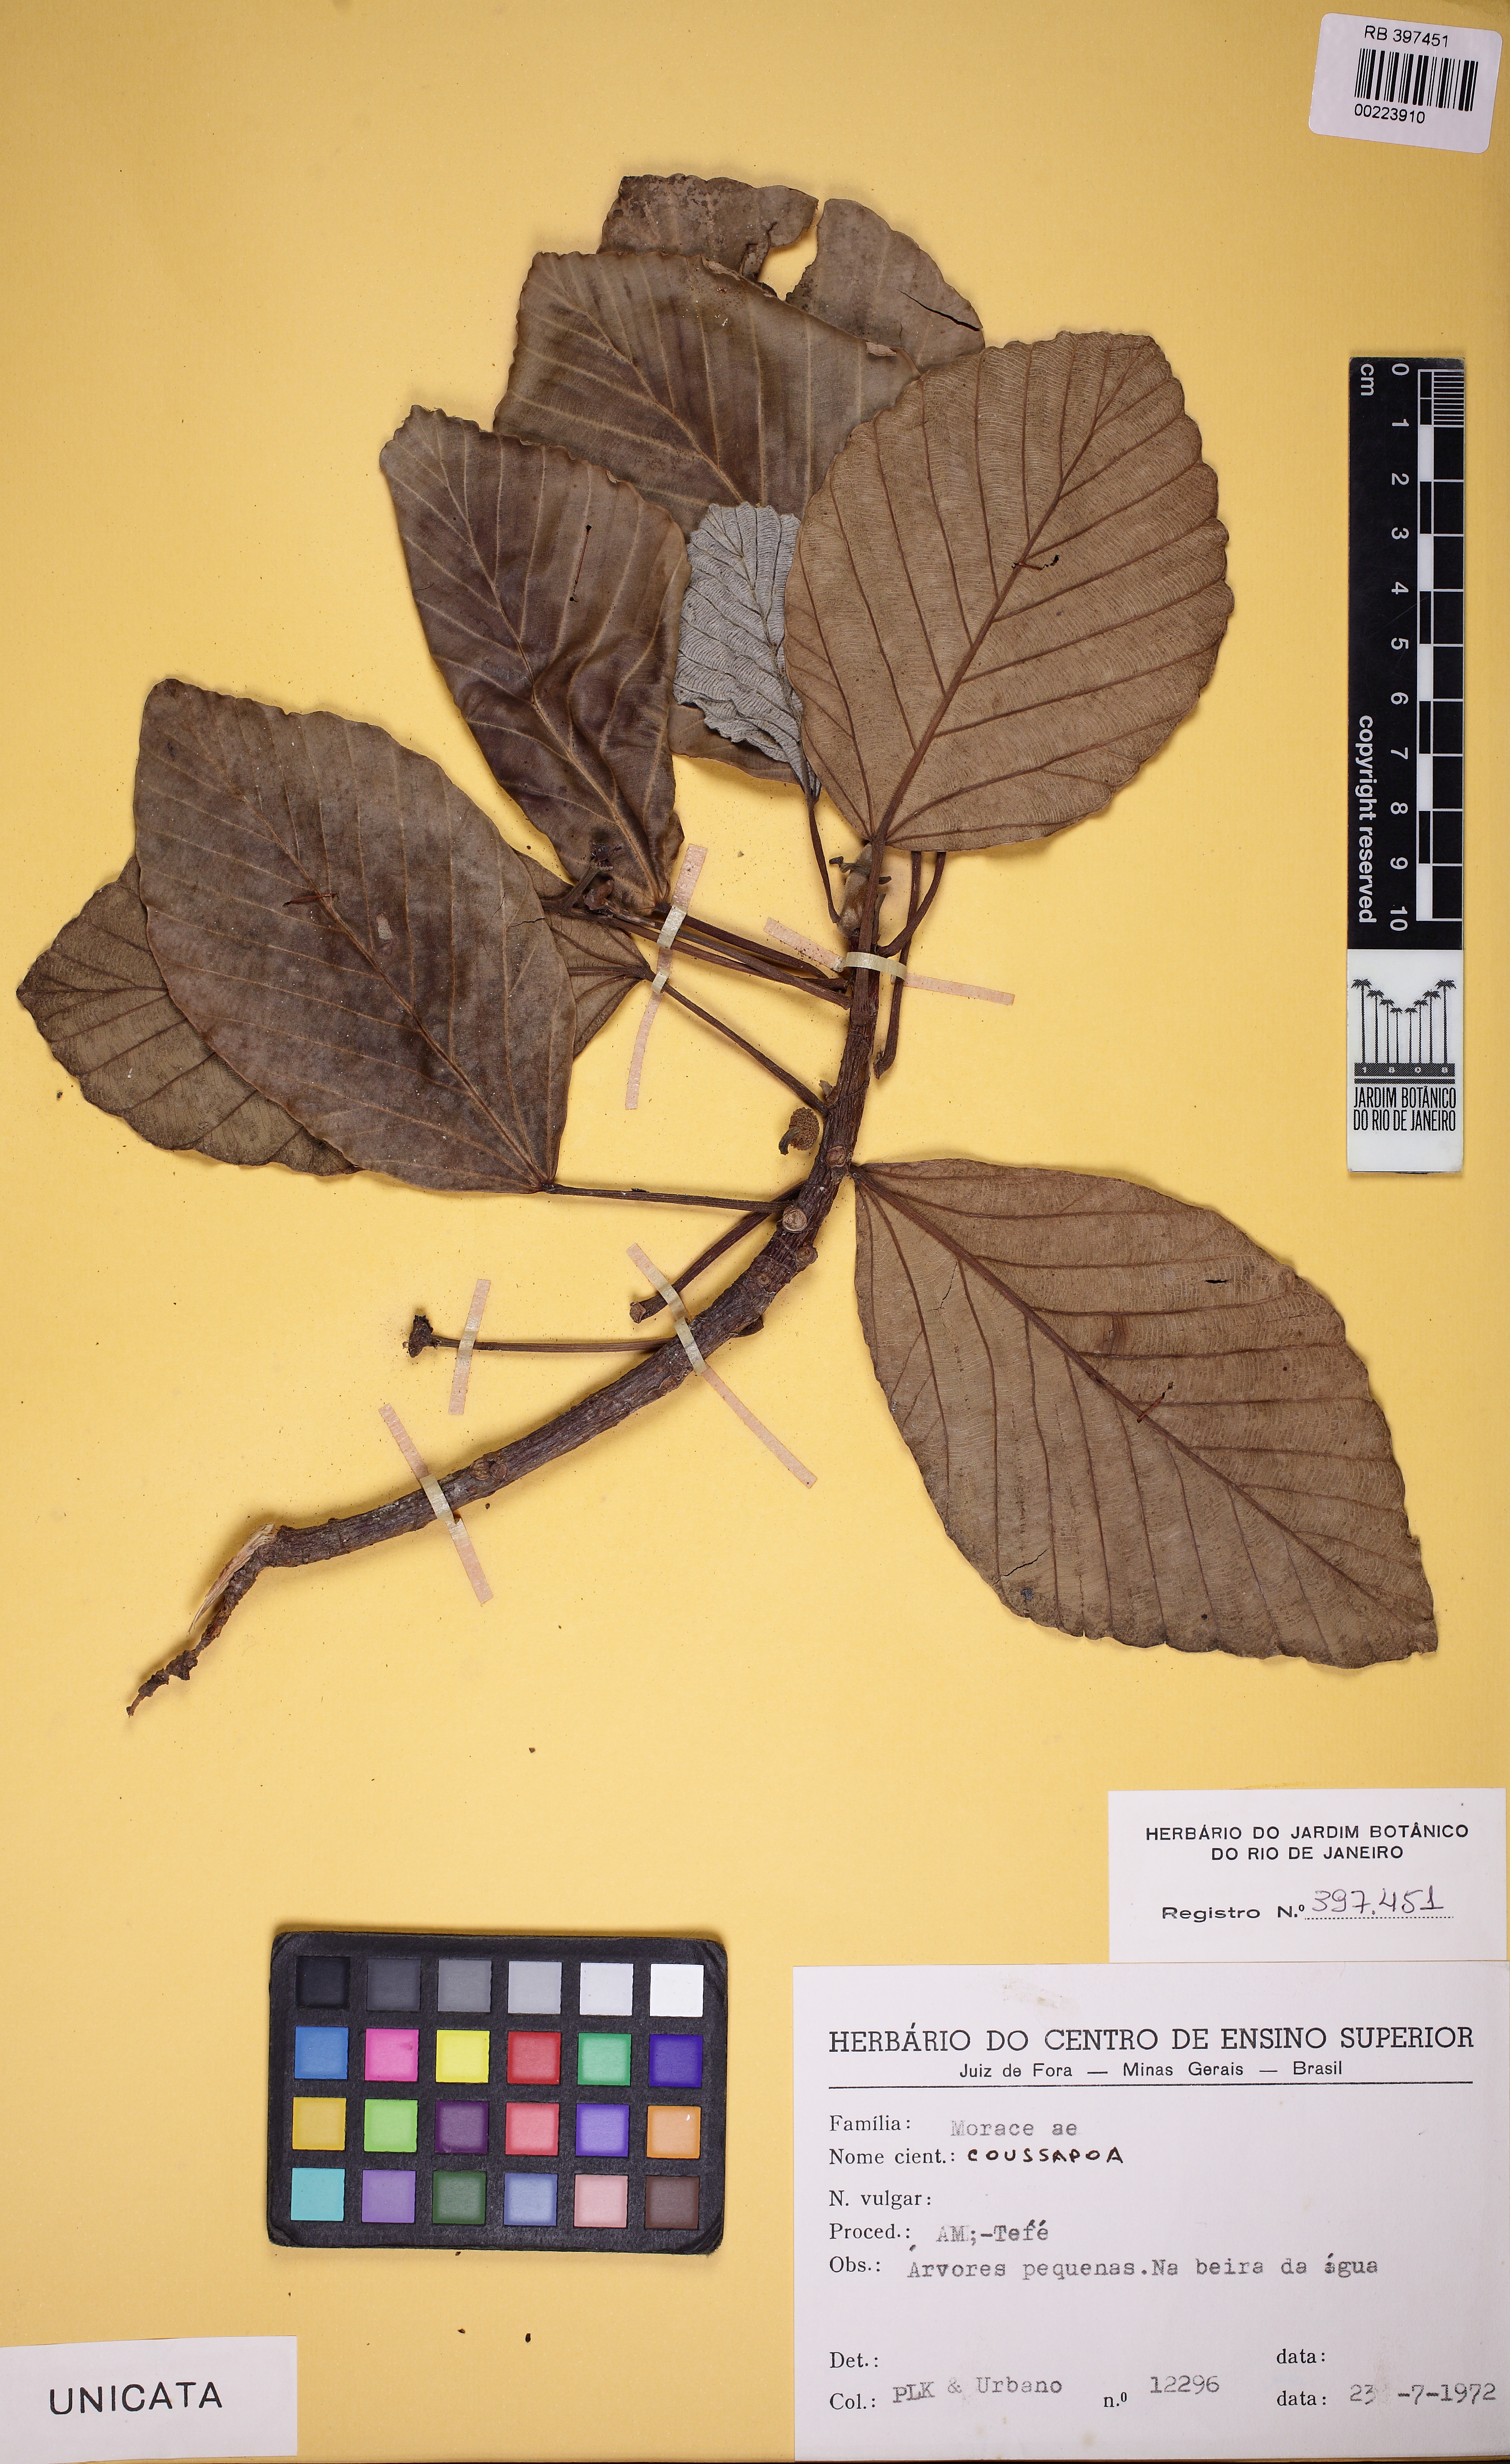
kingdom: Plantae
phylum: Tracheophyta
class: Magnoliopsida
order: Rosales
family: Urticaceae
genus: Coussapoa
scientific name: Coussapoa
